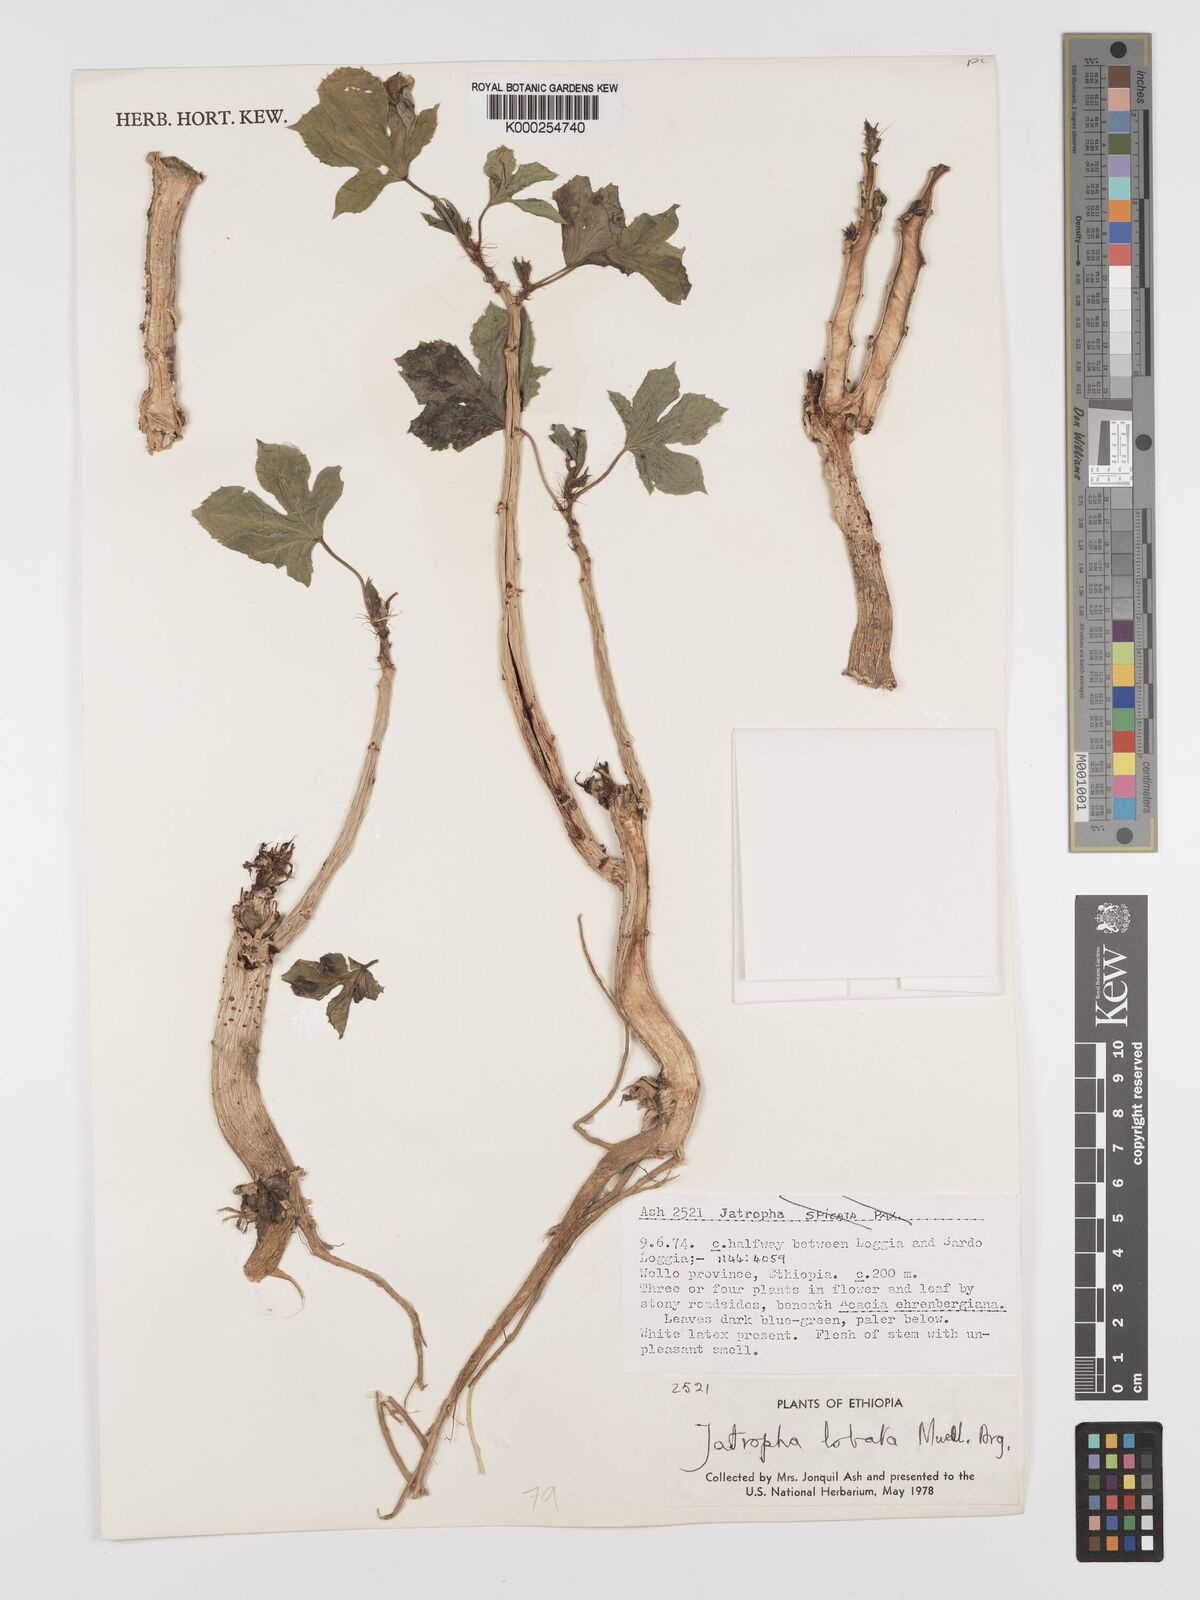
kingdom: Plantae
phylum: Tracheophyta
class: Magnoliopsida
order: Malpighiales
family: Euphorbiaceae
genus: Jatropha
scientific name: Jatropha glauca
